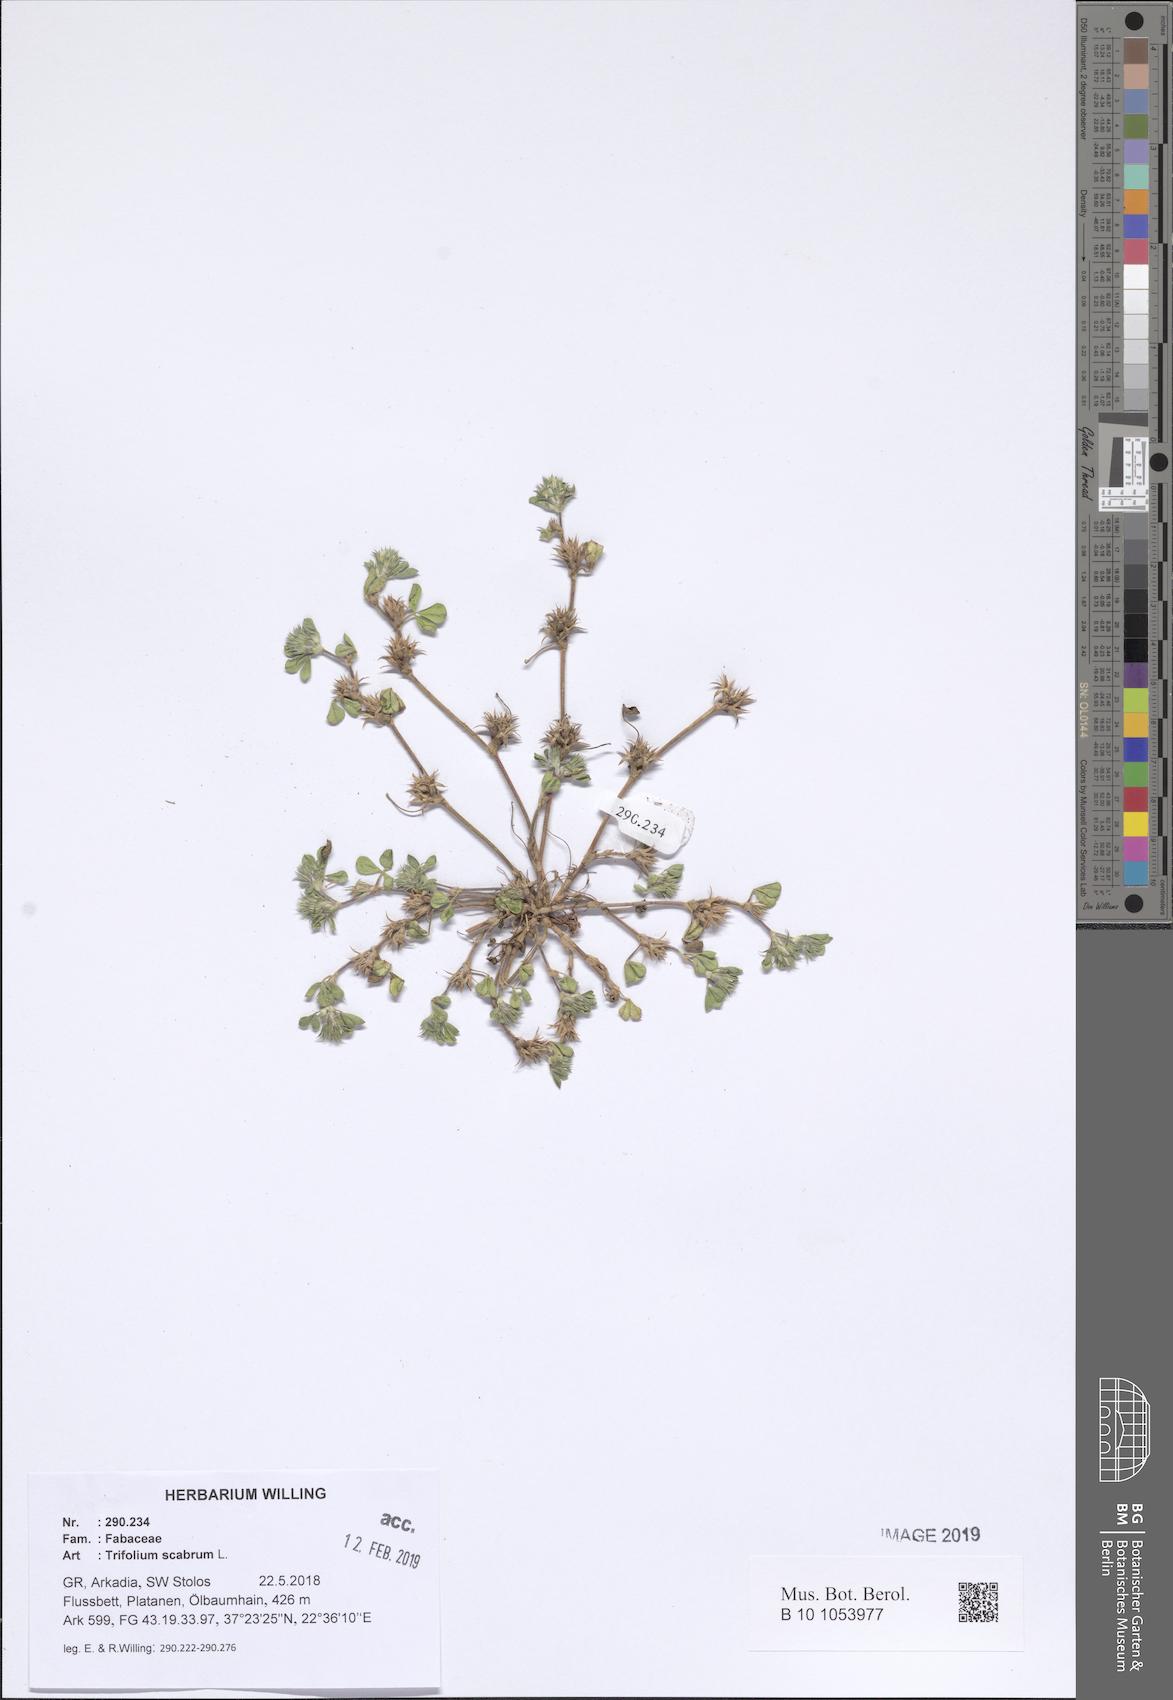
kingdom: Plantae
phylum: Tracheophyta
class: Magnoliopsida
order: Fabales
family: Fabaceae
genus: Trifolium
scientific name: Trifolium scabrum
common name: Rough clover
